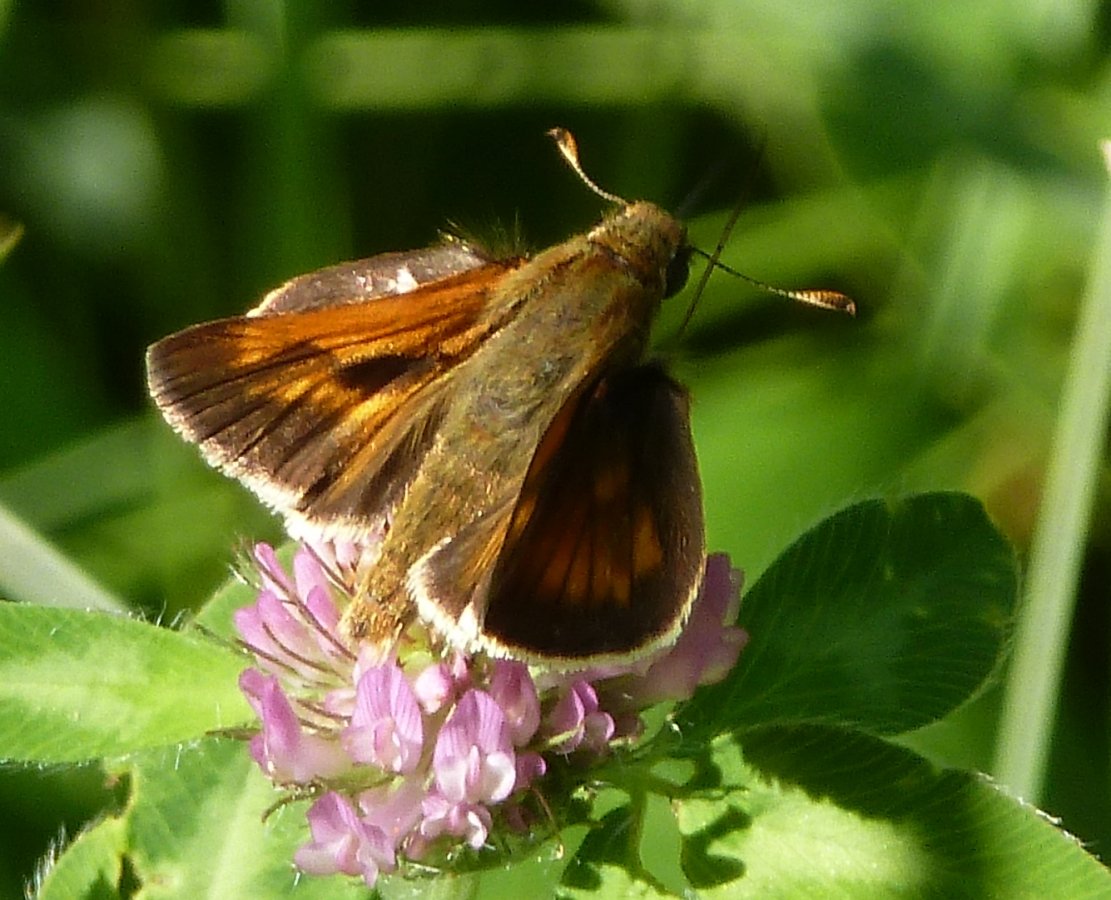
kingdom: Animalia
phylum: Arthropoda
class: Insecta
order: Lepidoptera
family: Hesperiidae
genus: Polites
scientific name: Polites
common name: Long Dash Skipper
